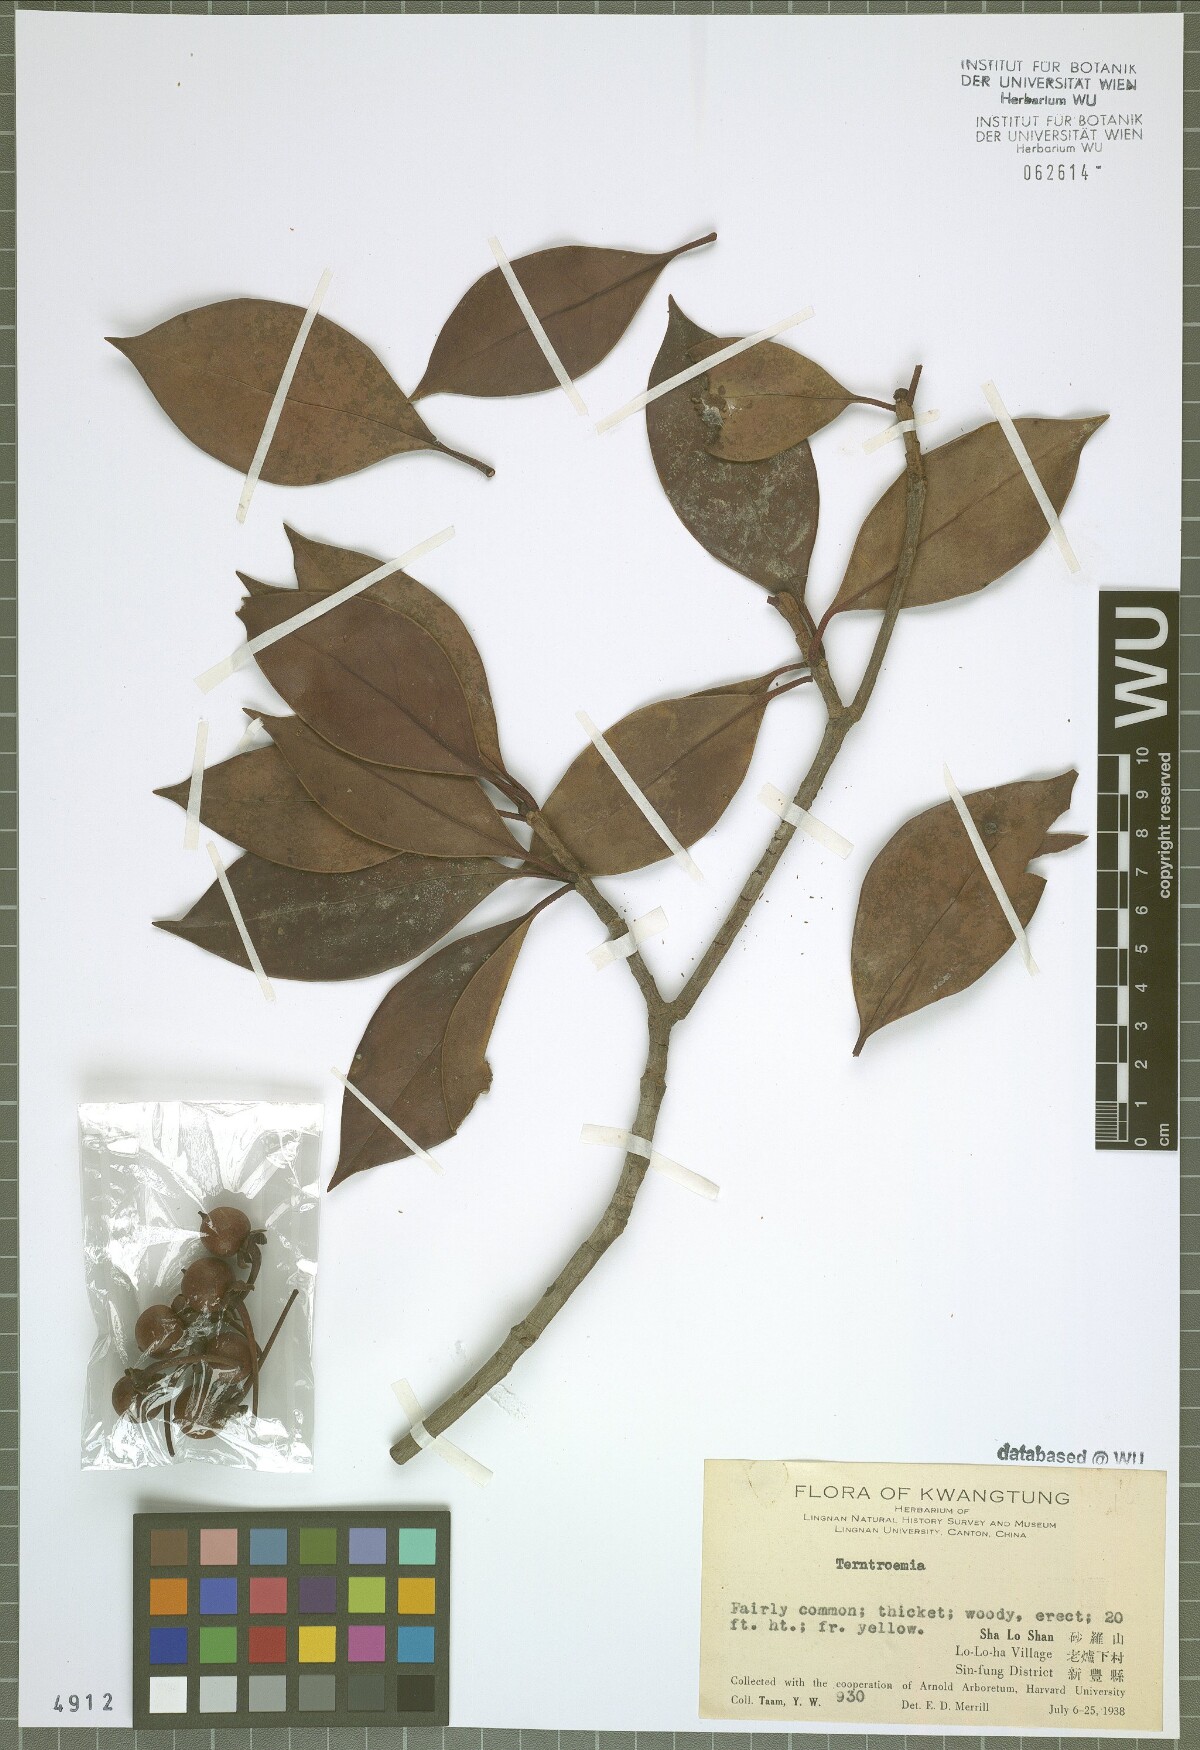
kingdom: Plantae
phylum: Tracheophyta
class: Magnoliopsida
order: Ericales
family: Pentaphylacaceae
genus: Ternstroemia
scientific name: Ternstroemia
